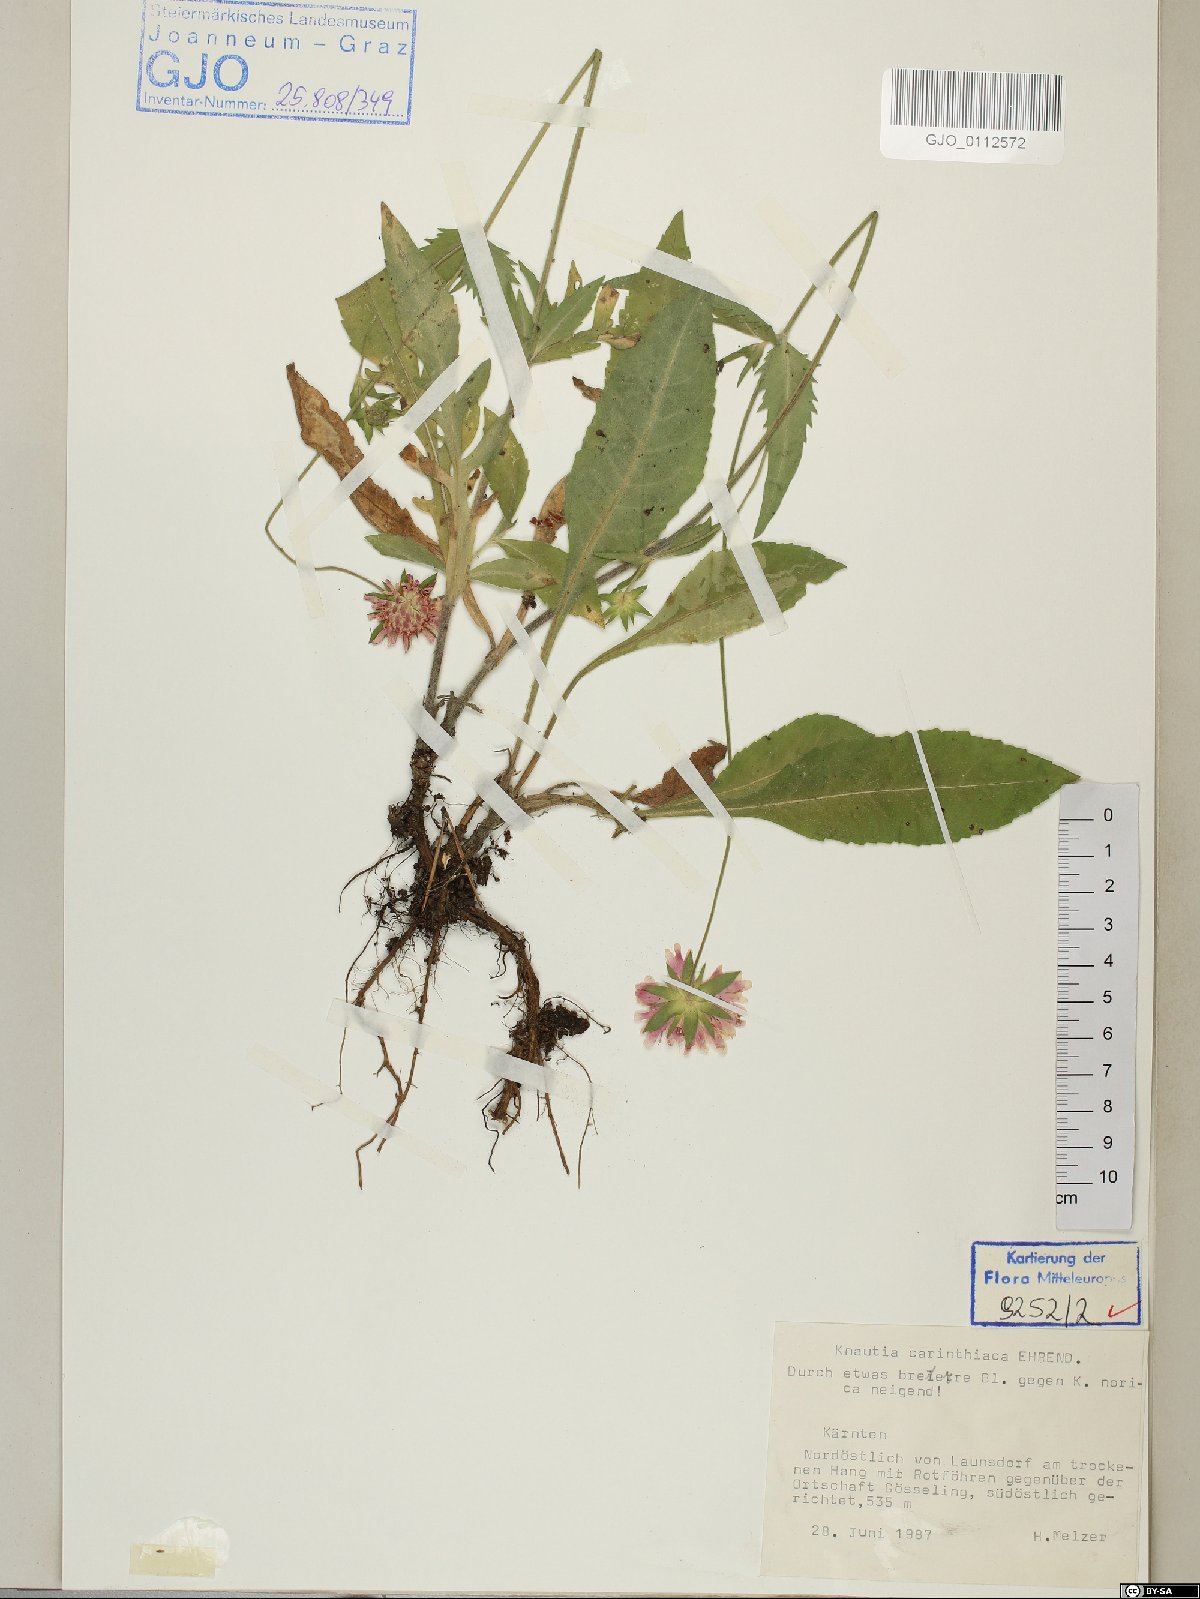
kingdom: Plantae
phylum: Tracheophyta
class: Magnoliopsida
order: Dipsacales
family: Caprifoliaceae
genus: Knautia
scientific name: Knautia carinthiaca
